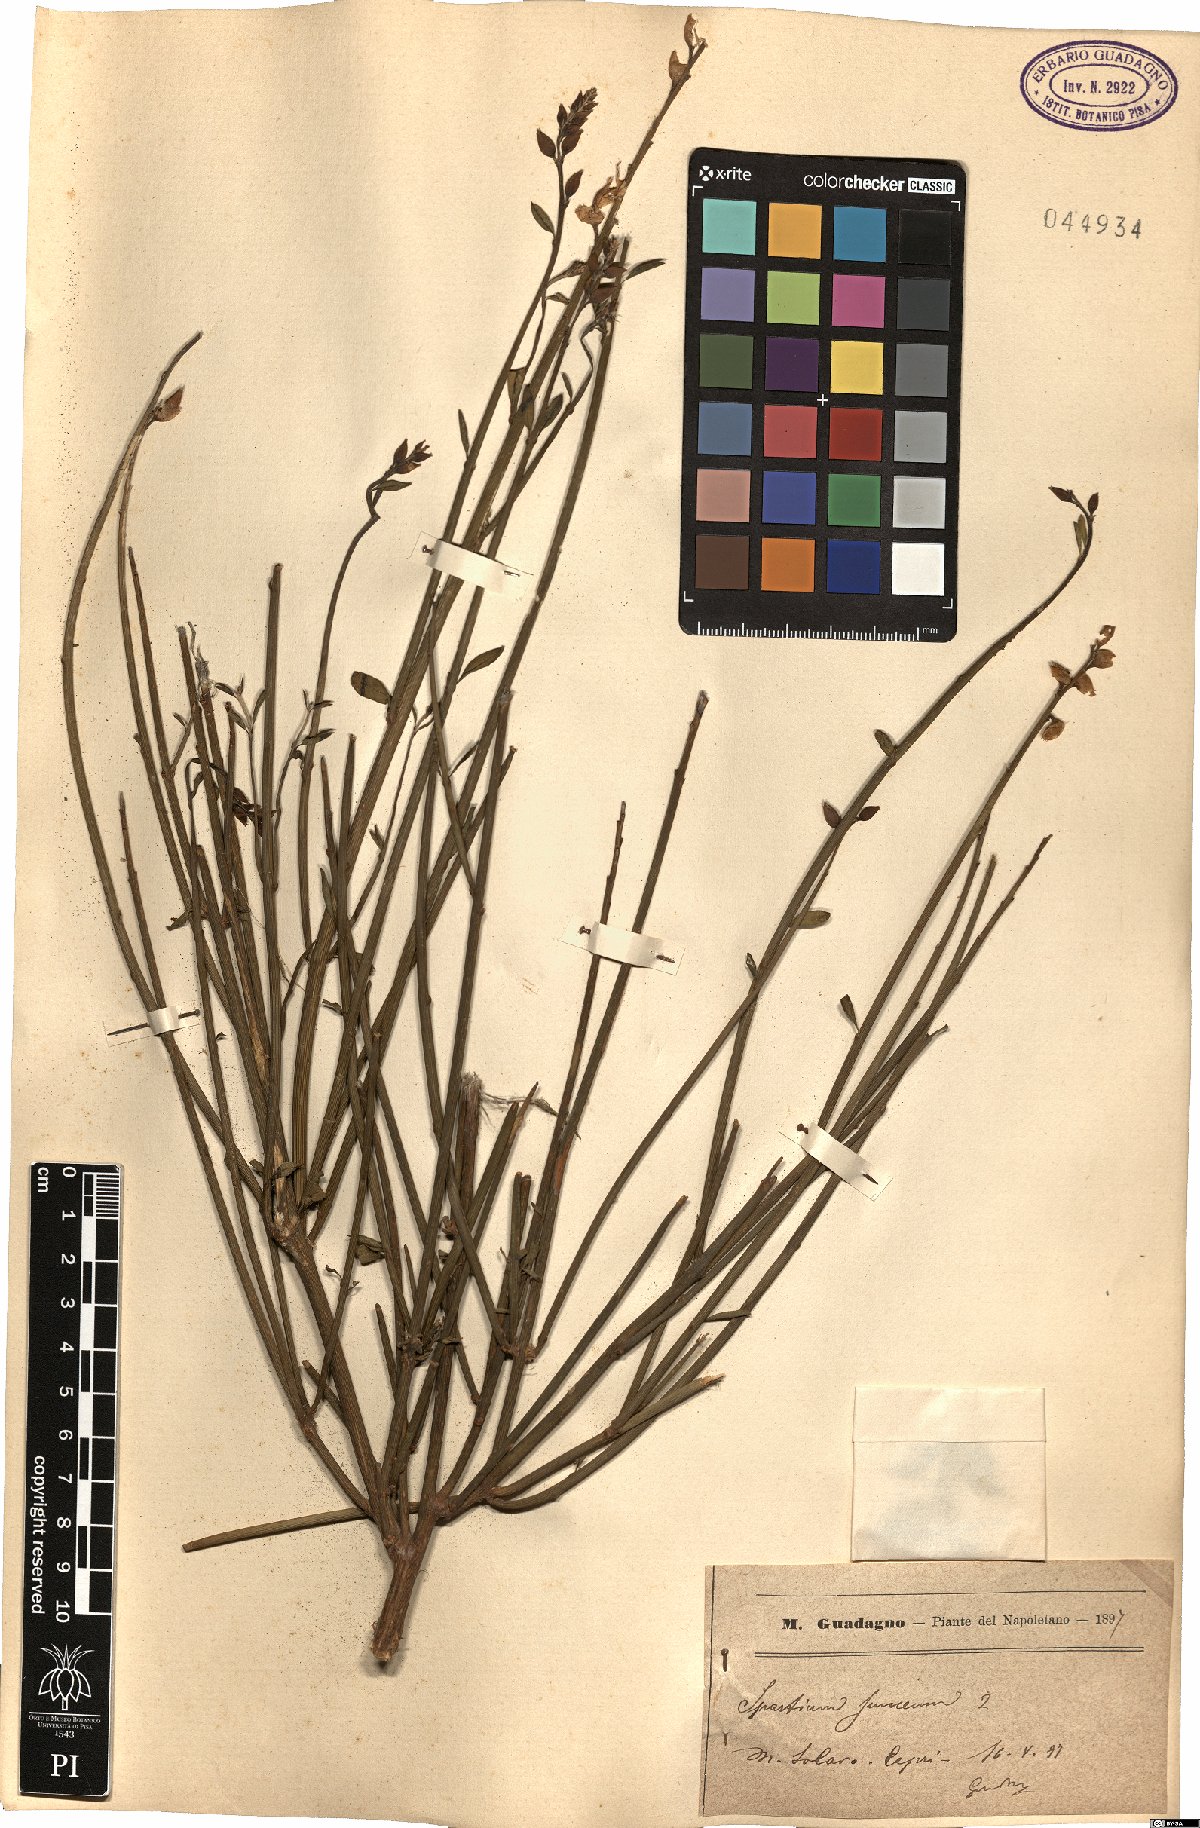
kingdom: Plantae
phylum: Tracheophyta
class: Magnoliopsida
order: Fabales
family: Fabaceae
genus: Spartium
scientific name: Spartium junceum
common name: Spanish broom
